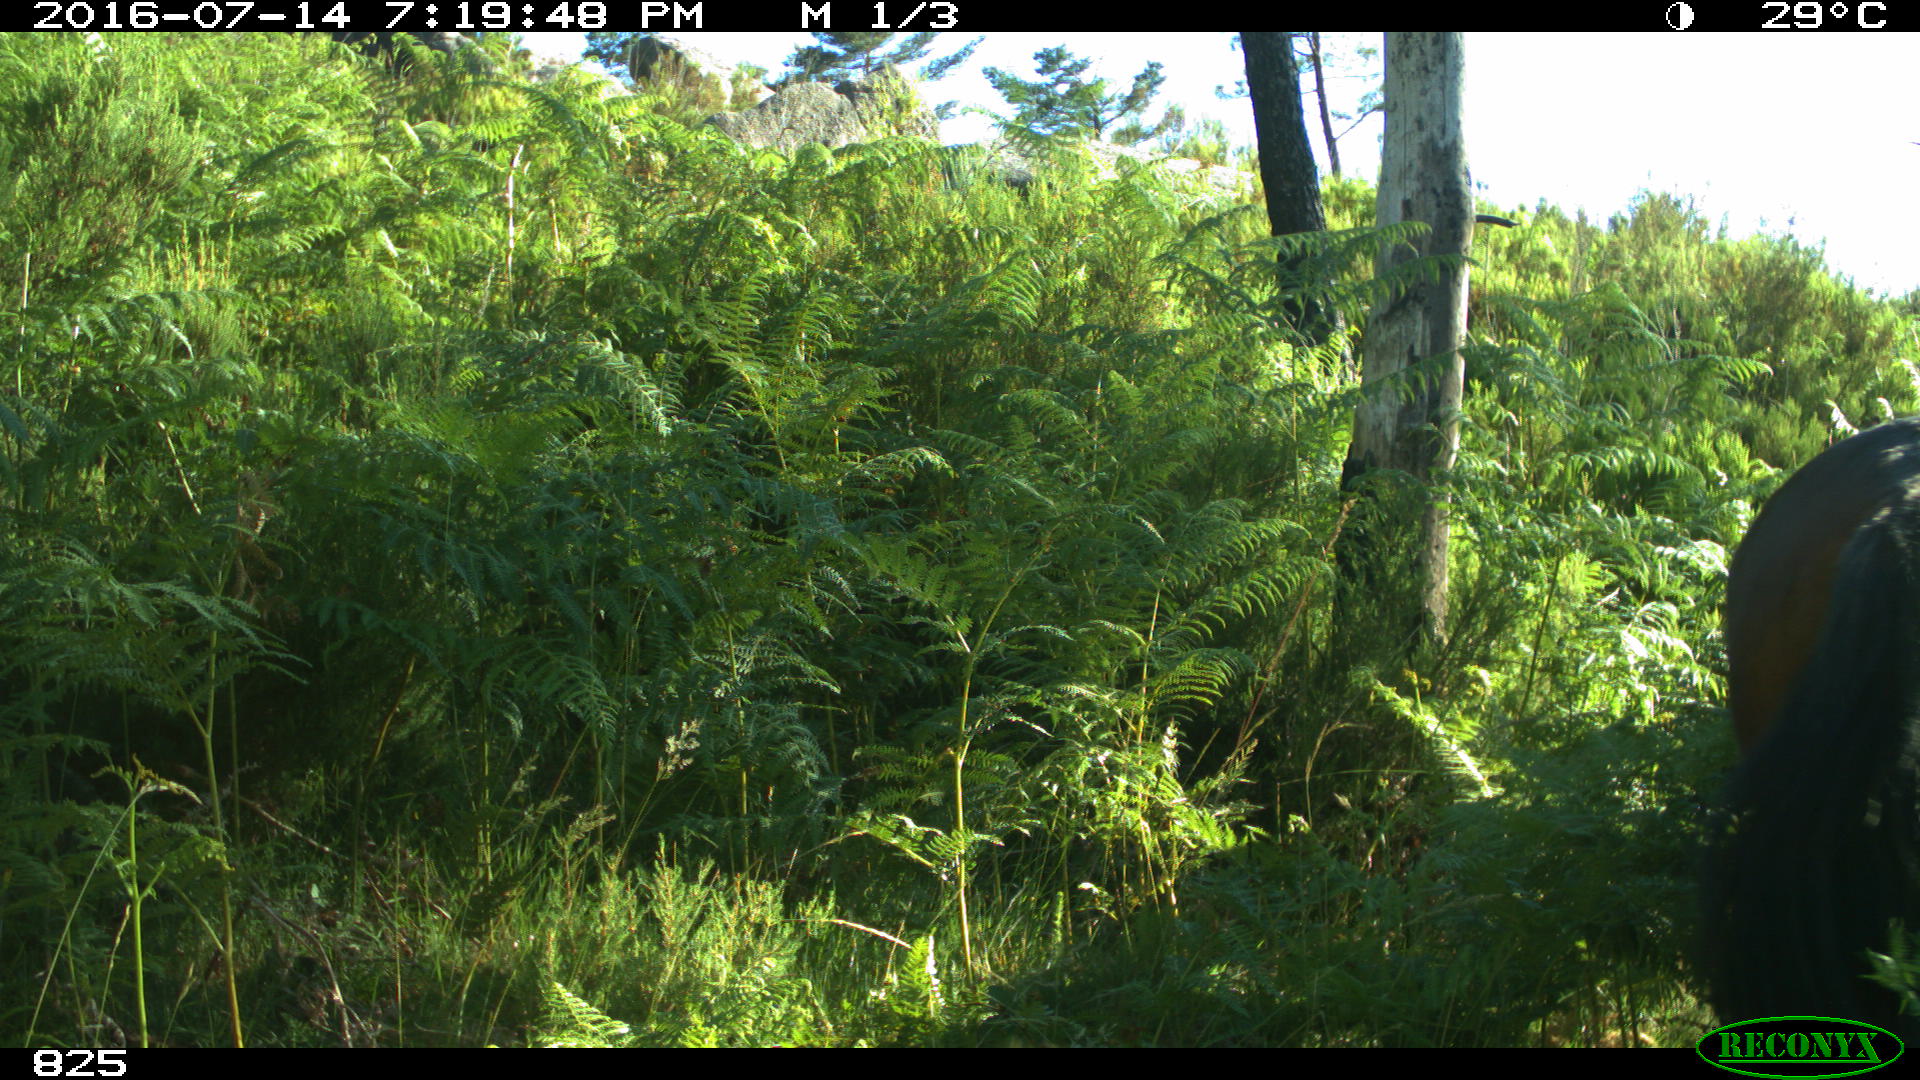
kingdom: Animalia
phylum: Chordata
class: Mammalia
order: Perissodactyla
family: Equidae
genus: Equus
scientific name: Equus caballus
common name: Horse
